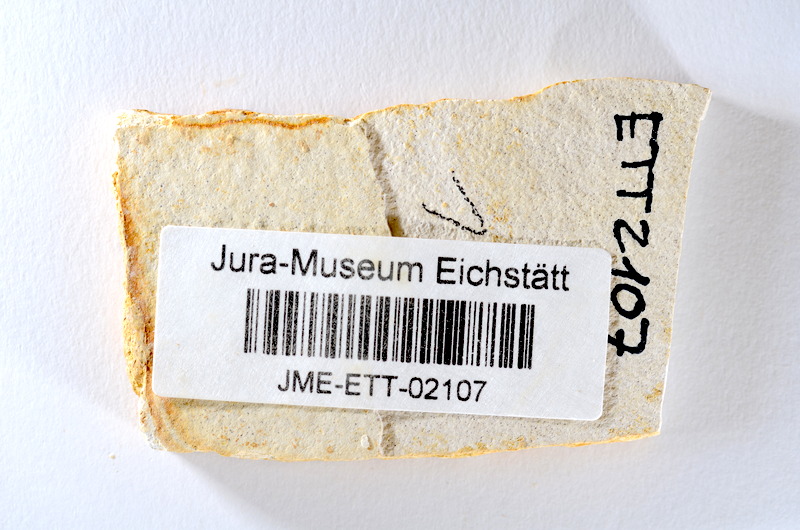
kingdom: Animalia
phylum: Chordata
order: Salmoniformes
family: Orthogonikleithridae
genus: Orthogonikleithrus
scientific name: Orthogonikleithrus hoelli
